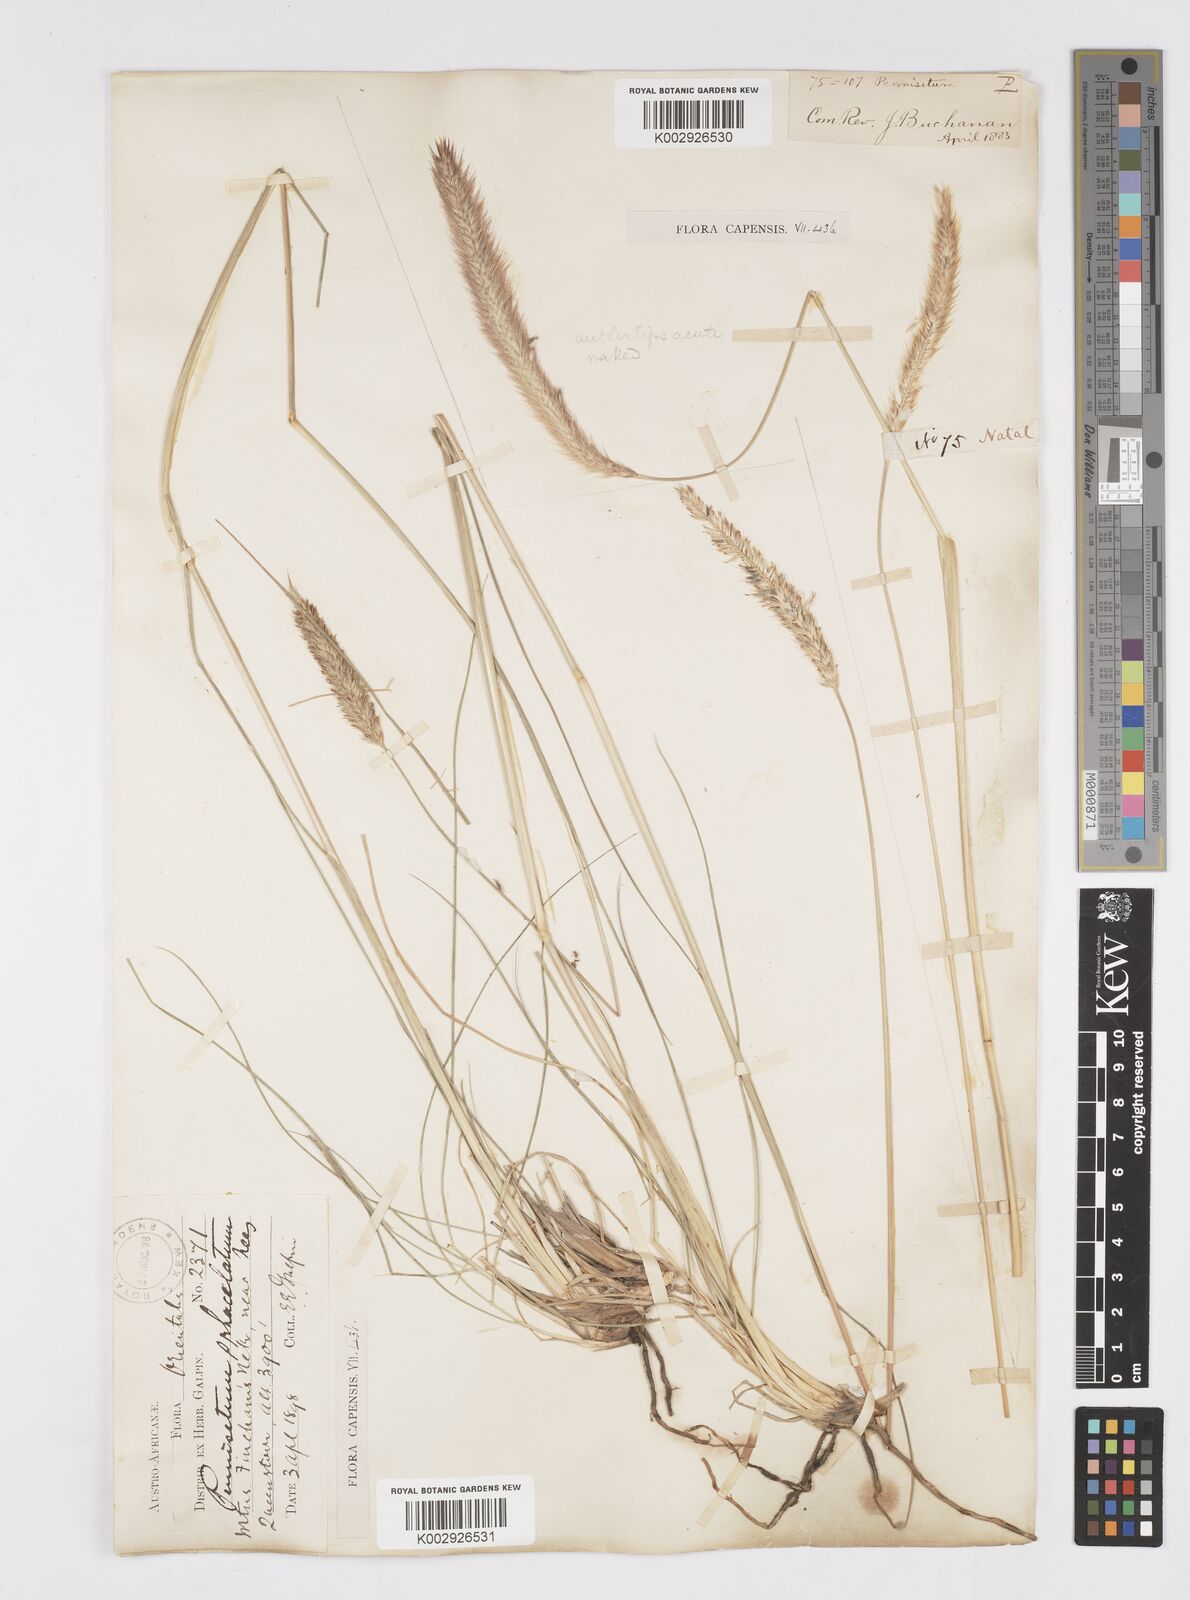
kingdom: Plantae
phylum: Tracheophyta
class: Liliopsida
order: Poales
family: Poaceae
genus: Cenchrus
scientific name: Cenchrus sphacelatus
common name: Bulgras
